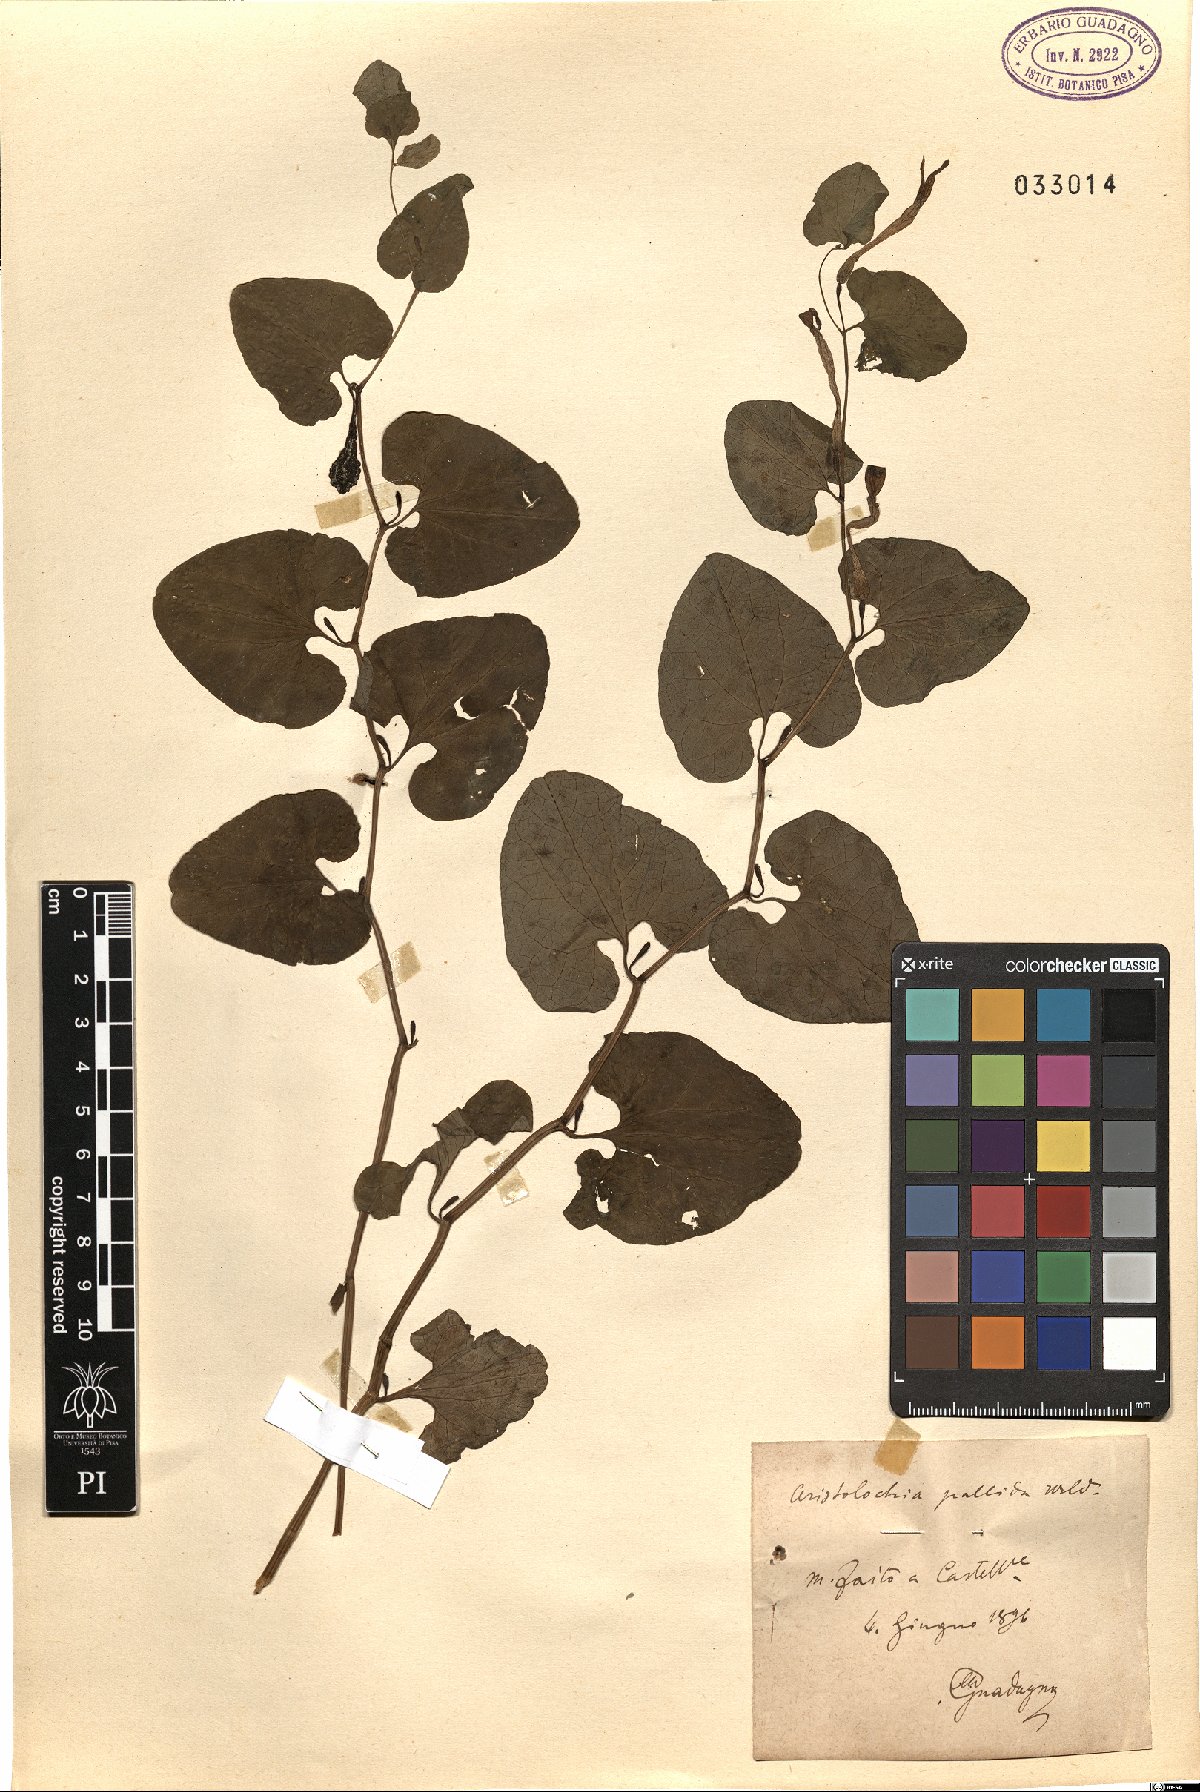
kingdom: Plantae
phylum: Tracheophyta
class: Magnoliopsida
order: Piperales
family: Aristolochiaceae
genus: Aristolochia
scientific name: Aristolochia pallida
